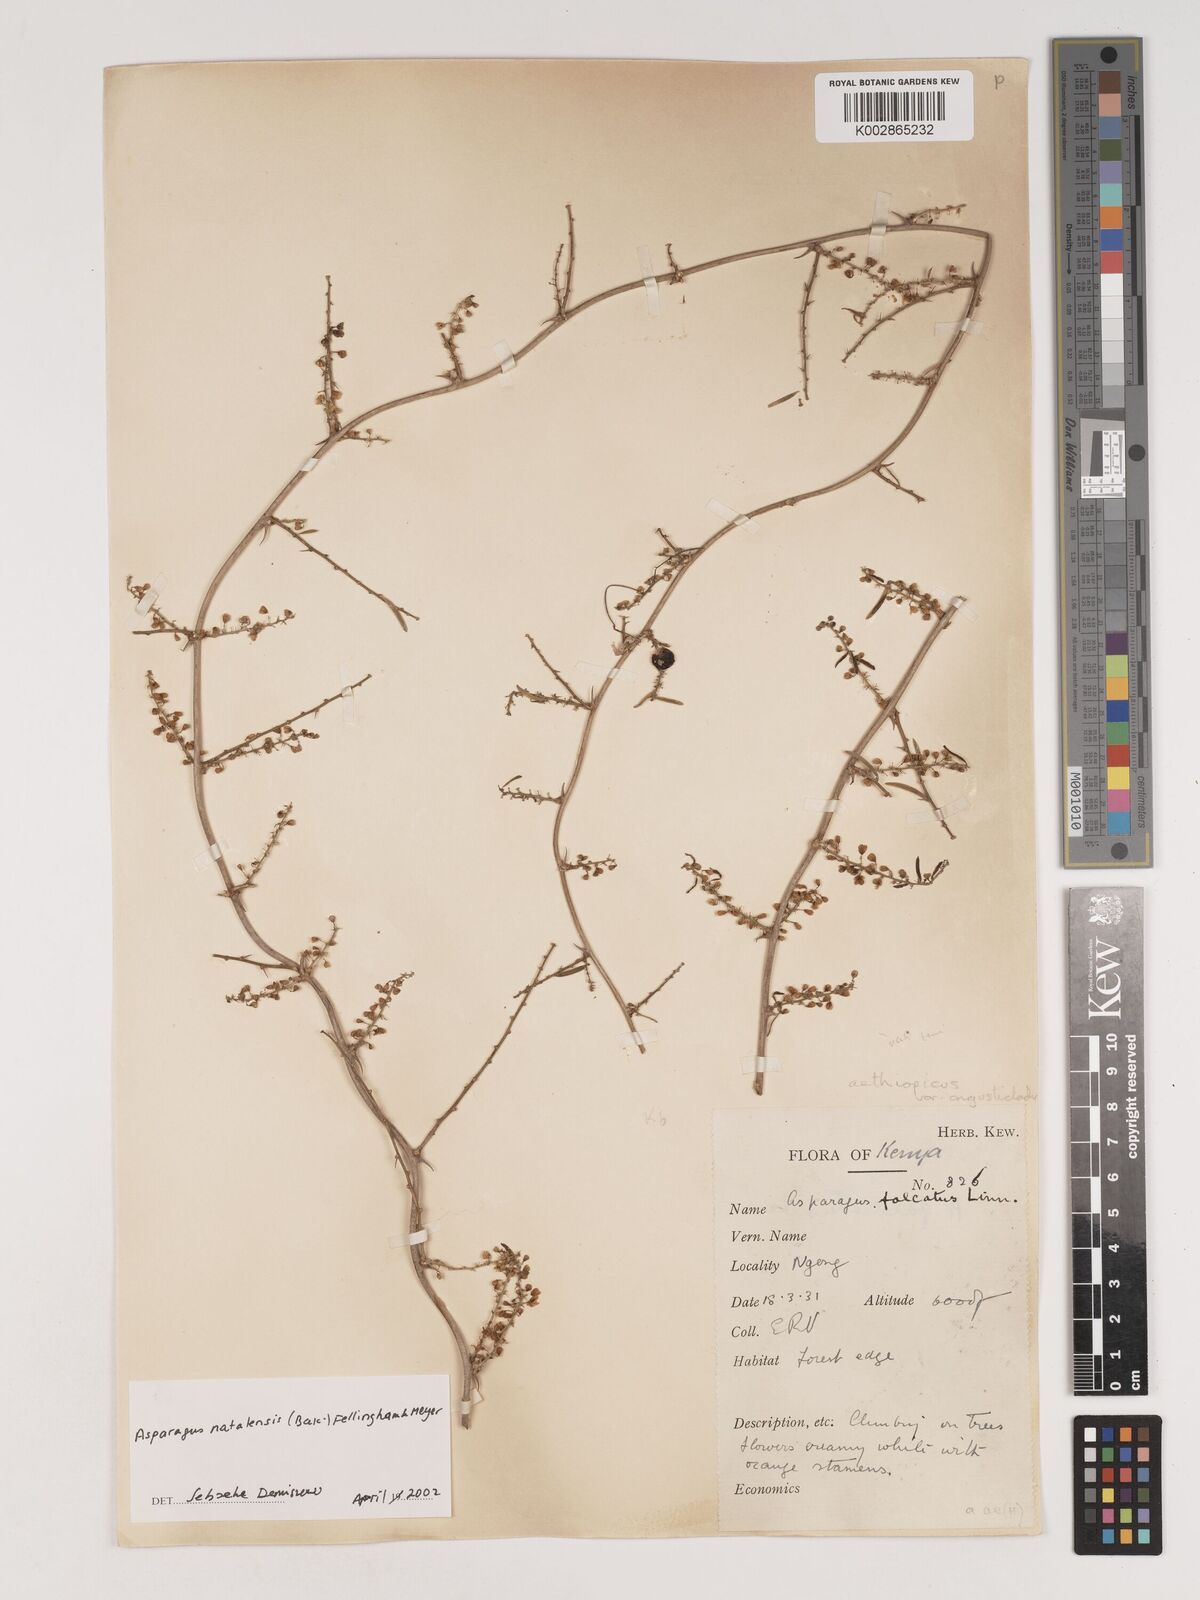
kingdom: Plantae
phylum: Tracheophyta
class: Liliopsida
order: Asparagales
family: Asparagaceae
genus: Asparagus
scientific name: Asparagus natalensis
